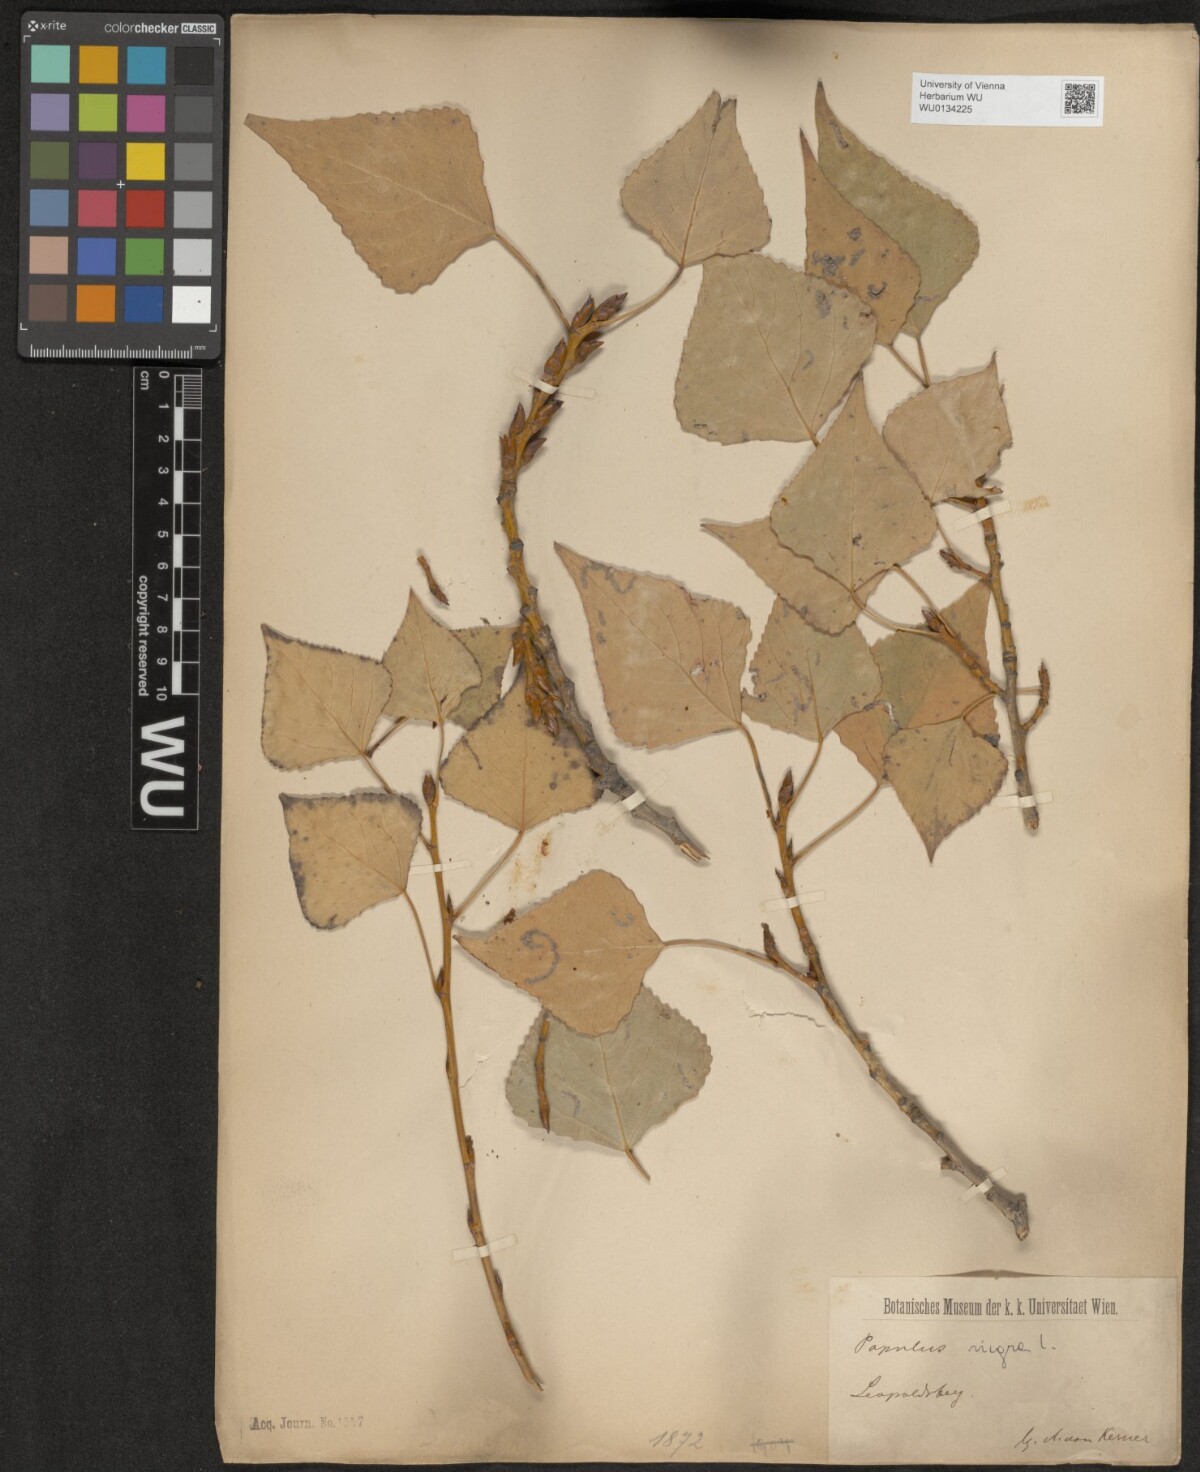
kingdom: Plantae
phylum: Tracheophyta
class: Magnoliopsida
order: Malpighiales
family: Salicaceae
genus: Populus
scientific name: Populus nigra
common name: Black poplar
